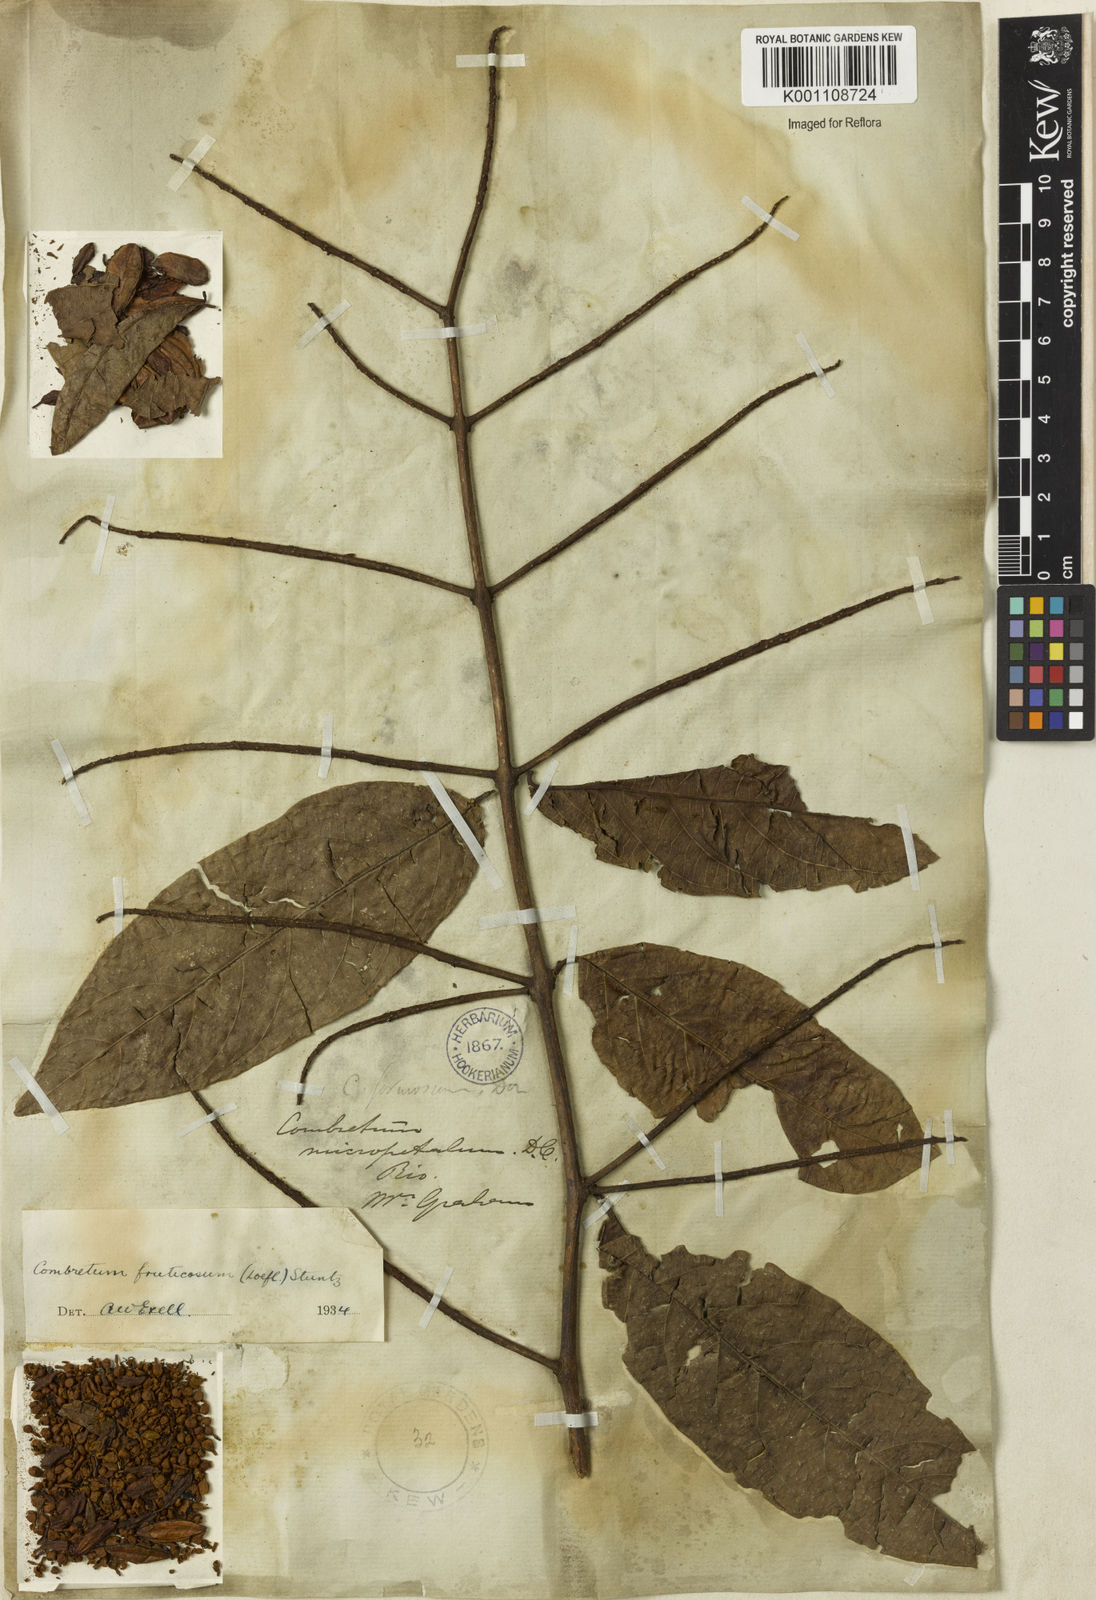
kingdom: Plantae
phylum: Tracheophyta
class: Magnoliopsida
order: Myrtales
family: Combretaceae
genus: Combretum
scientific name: Combretum fruticosum
